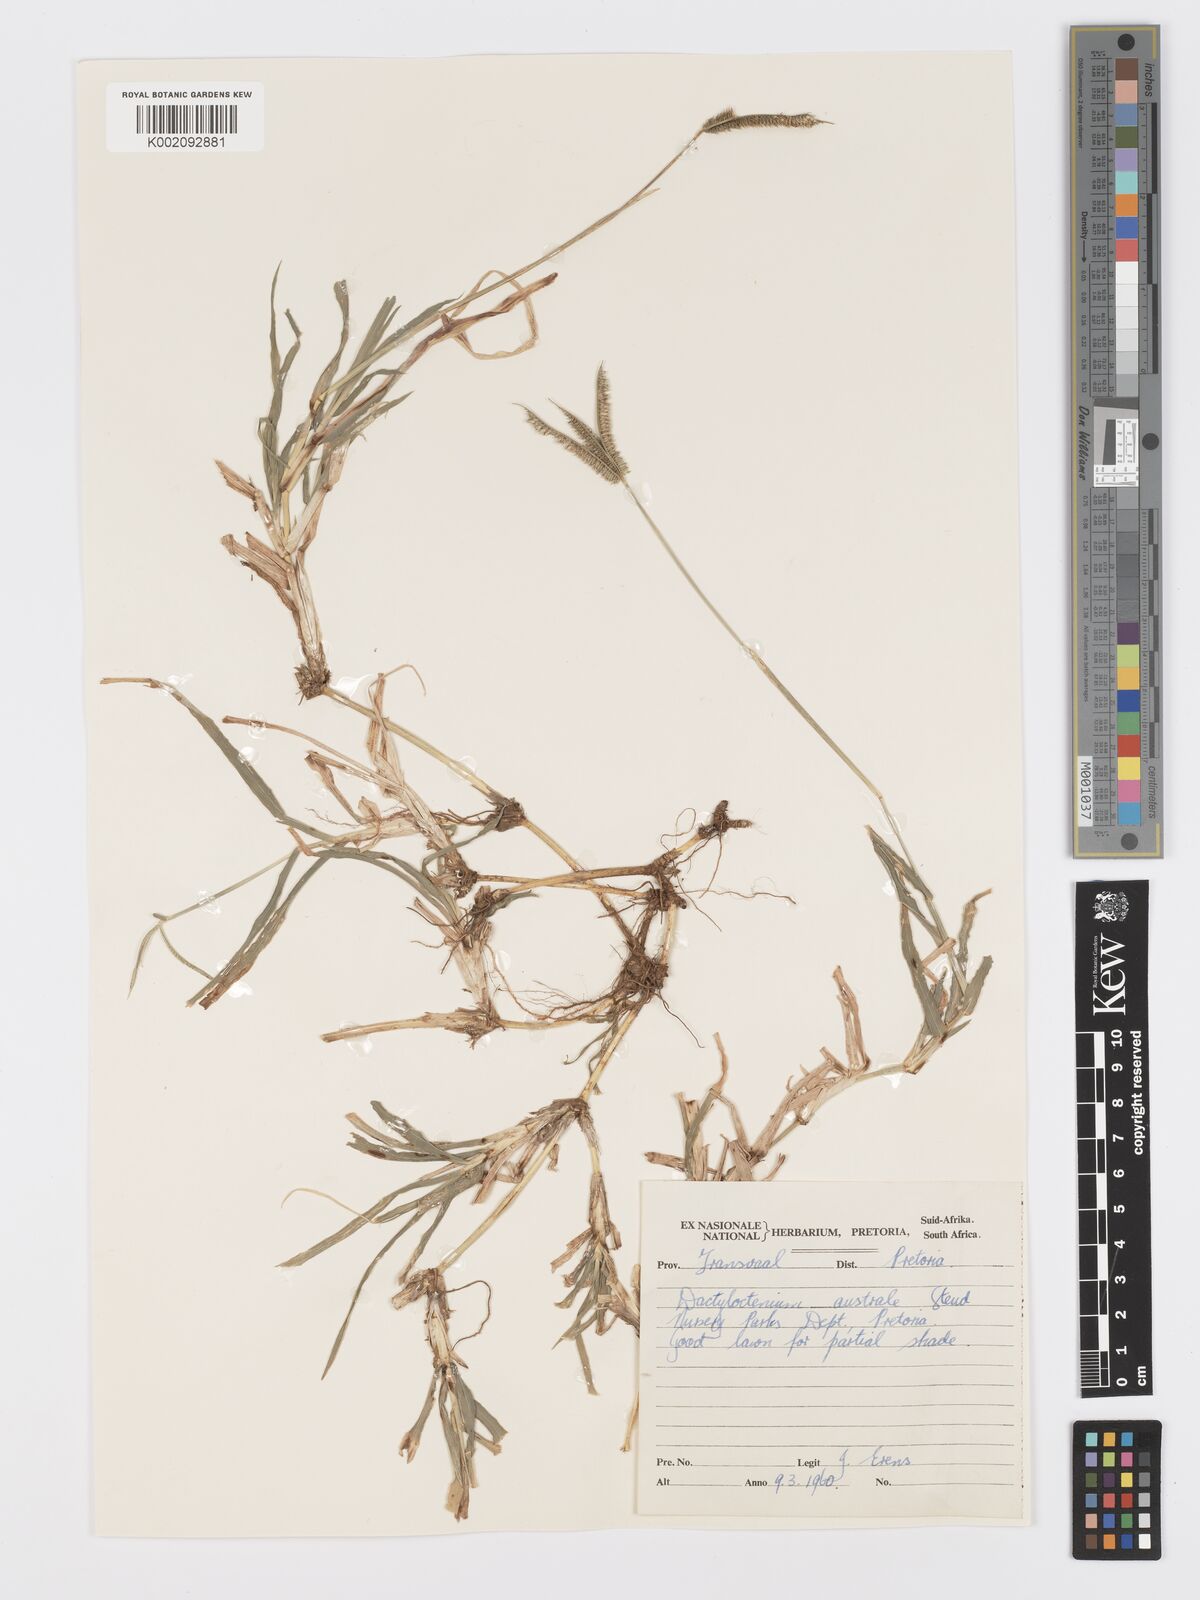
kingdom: Plantae
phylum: Tracheophyta
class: Liliopsida
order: Poales
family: Poaceae
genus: Dactyloctenium
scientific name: Dactyloctenium australe
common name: Durban grass
